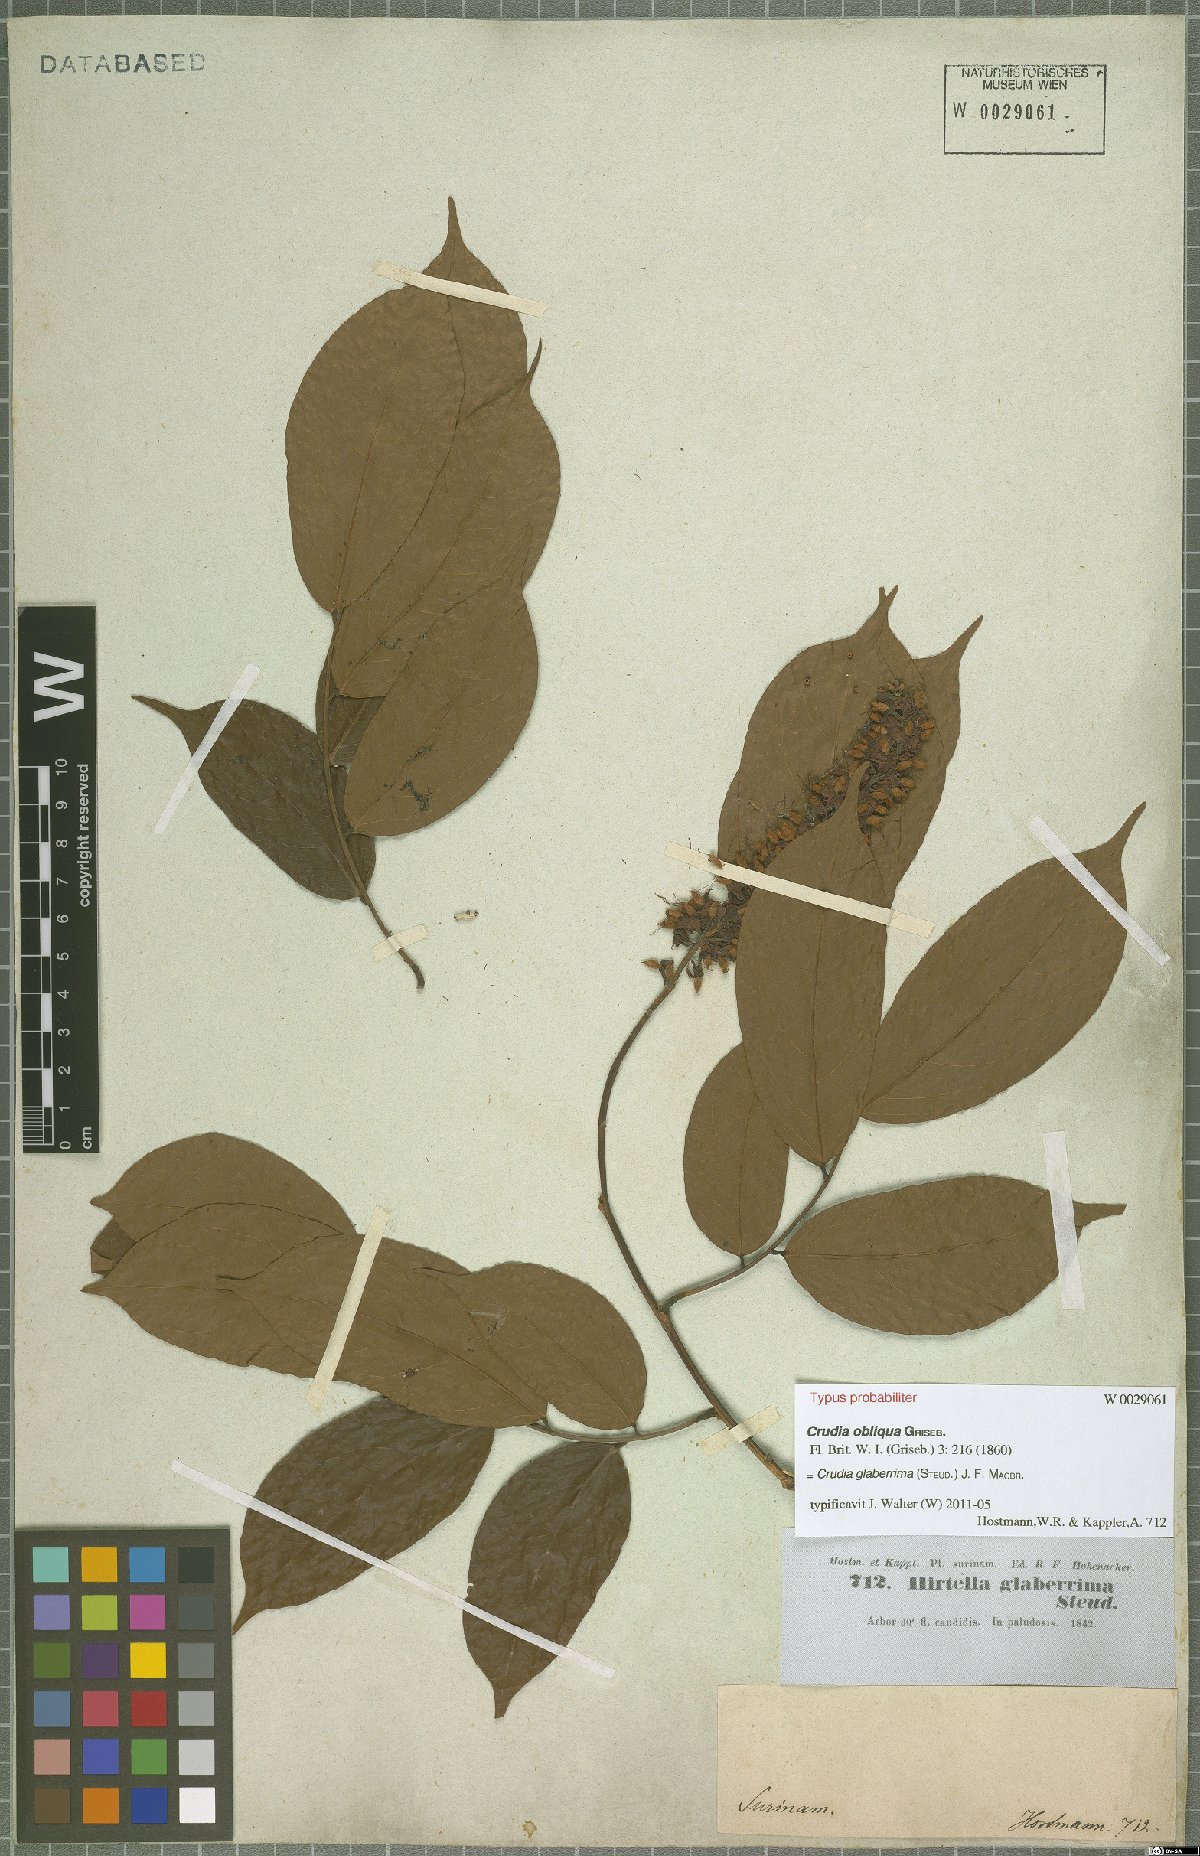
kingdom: Plantae
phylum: Tracheophyta
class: Magnoliopsida
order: Fabales
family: Fabaceae
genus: Crudia
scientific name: Crudia glaberrima
